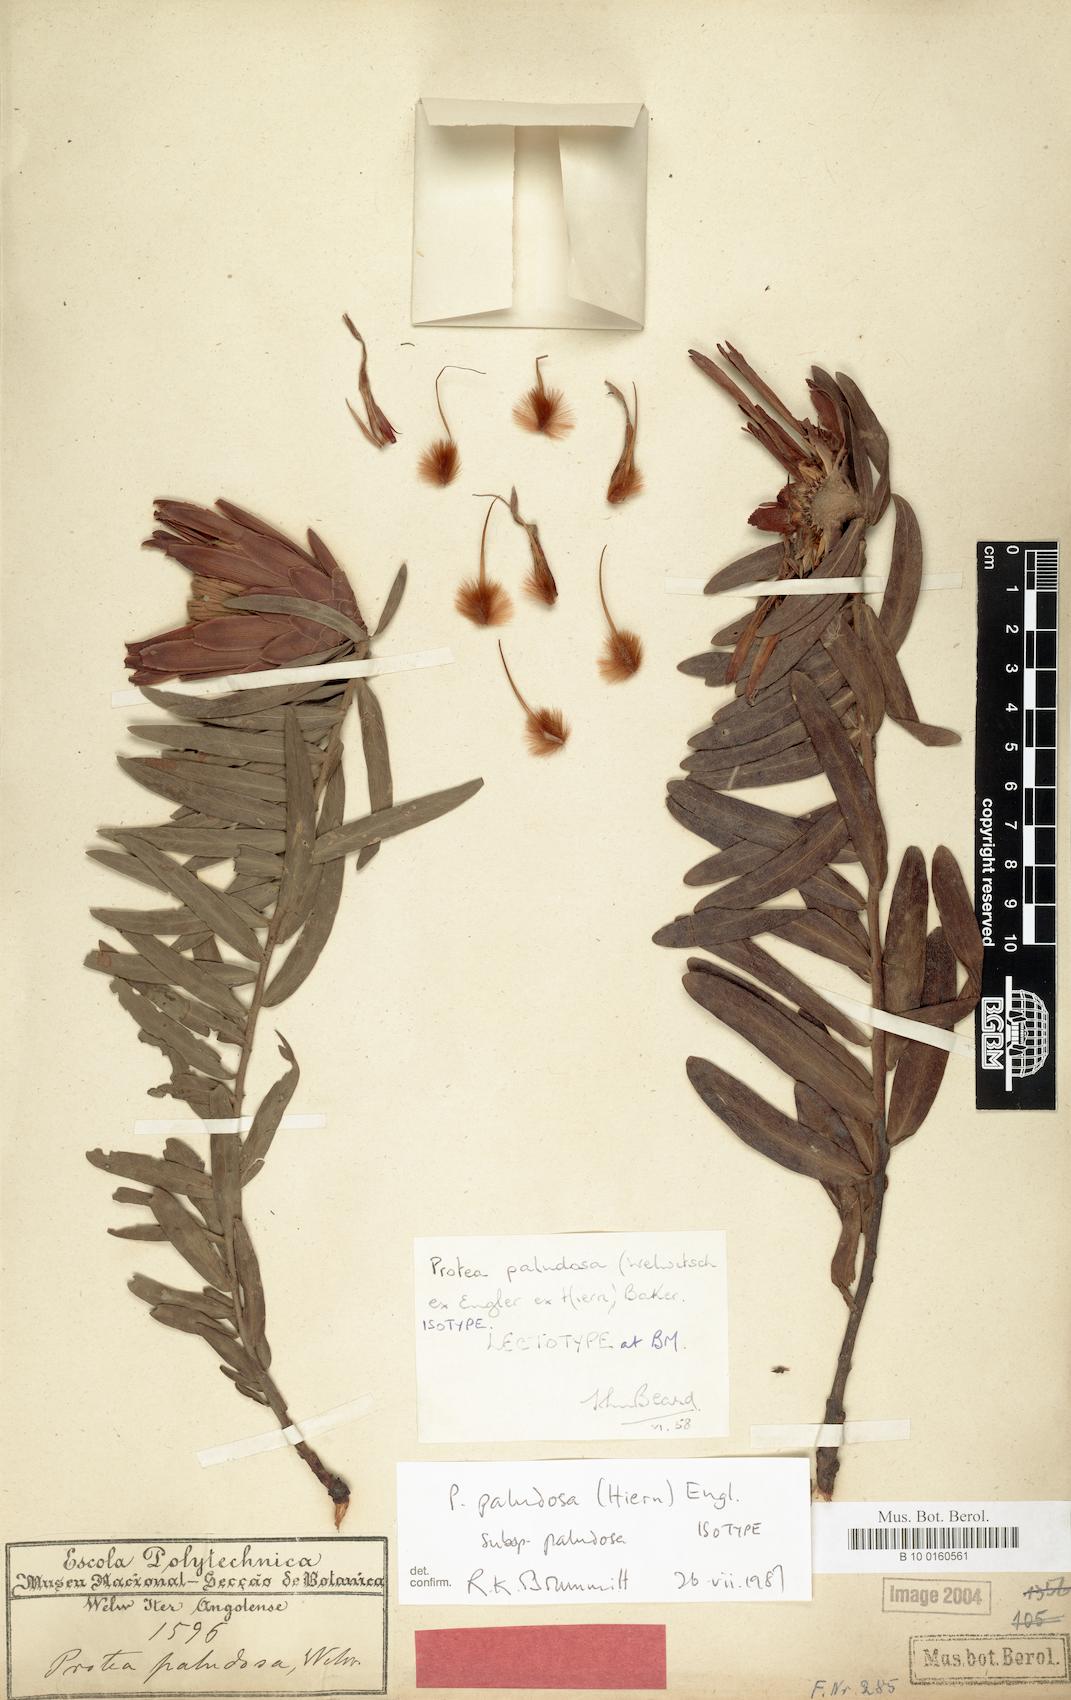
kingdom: Plantae
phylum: Tracheophyta
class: Magnoliopsida
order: Proteales
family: Proteaceae
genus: Protea
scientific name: Protea paludosa
